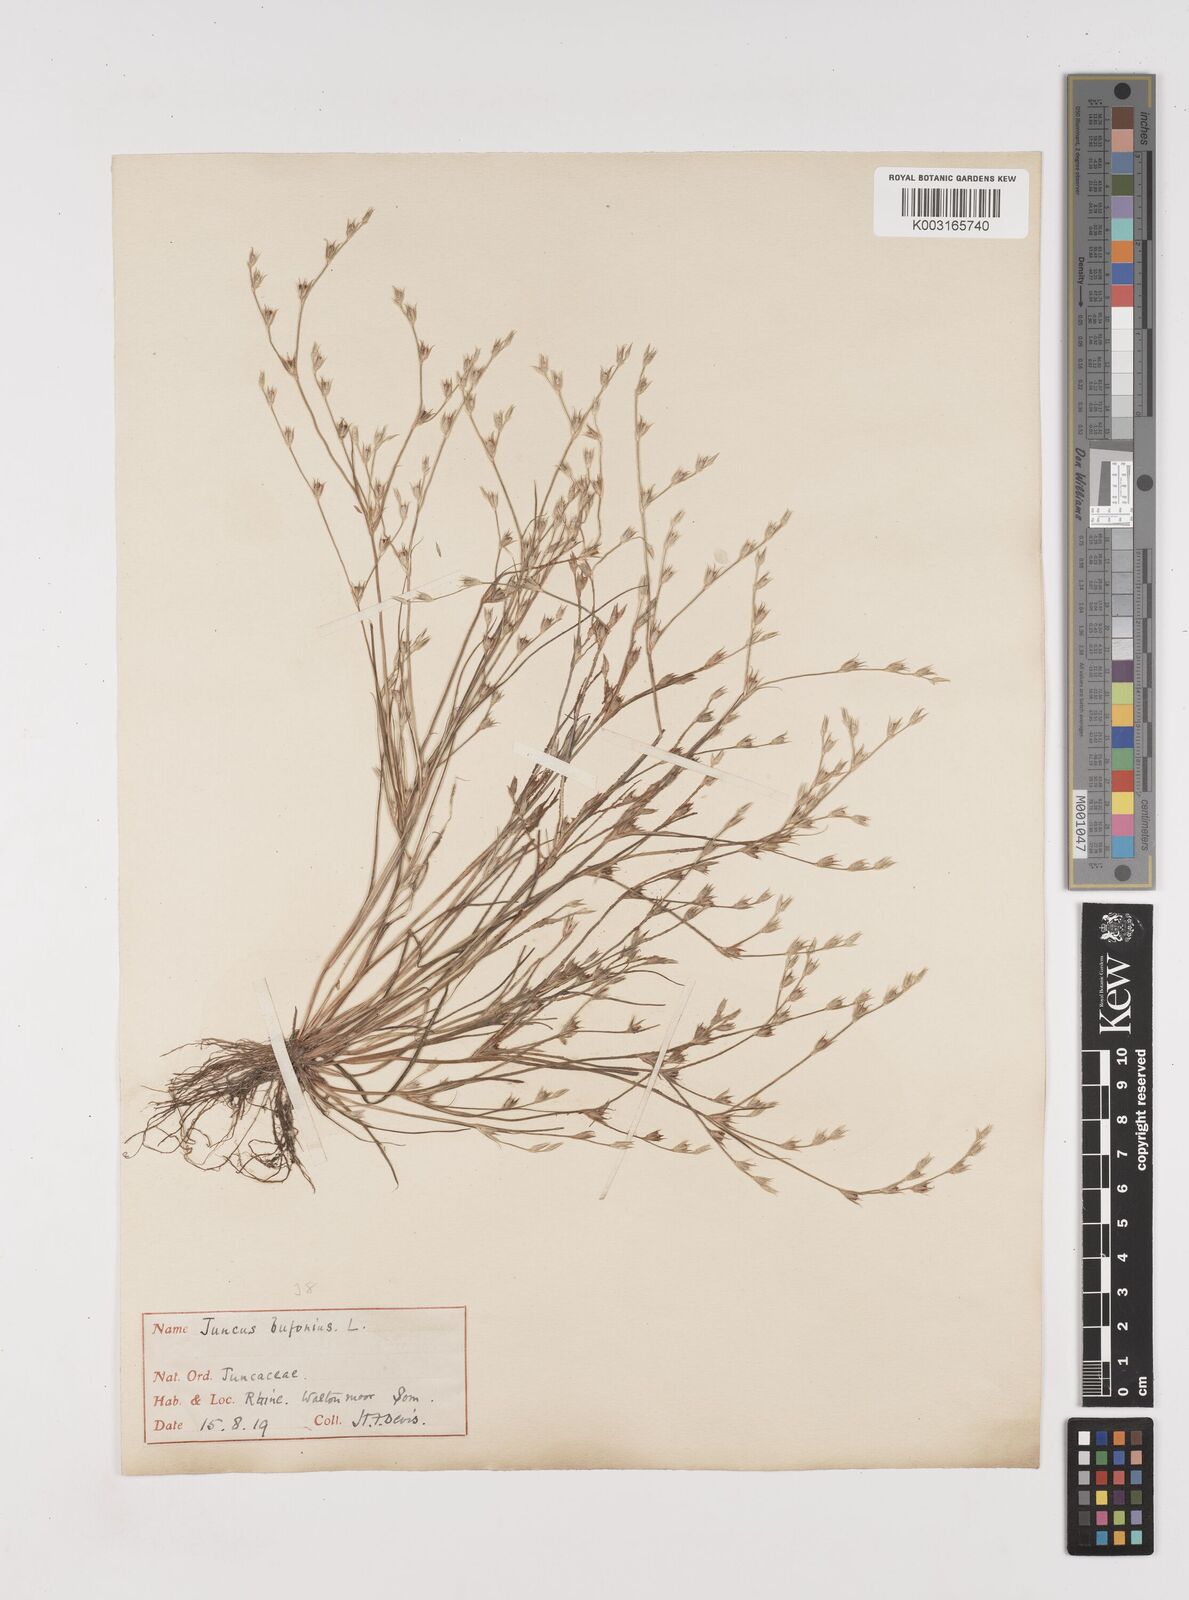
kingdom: Plantae
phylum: Tracheophyta
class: Liliopsida
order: Poales
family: Juncaceae
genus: Juncus
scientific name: Juncus bufonius
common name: Toad rush
